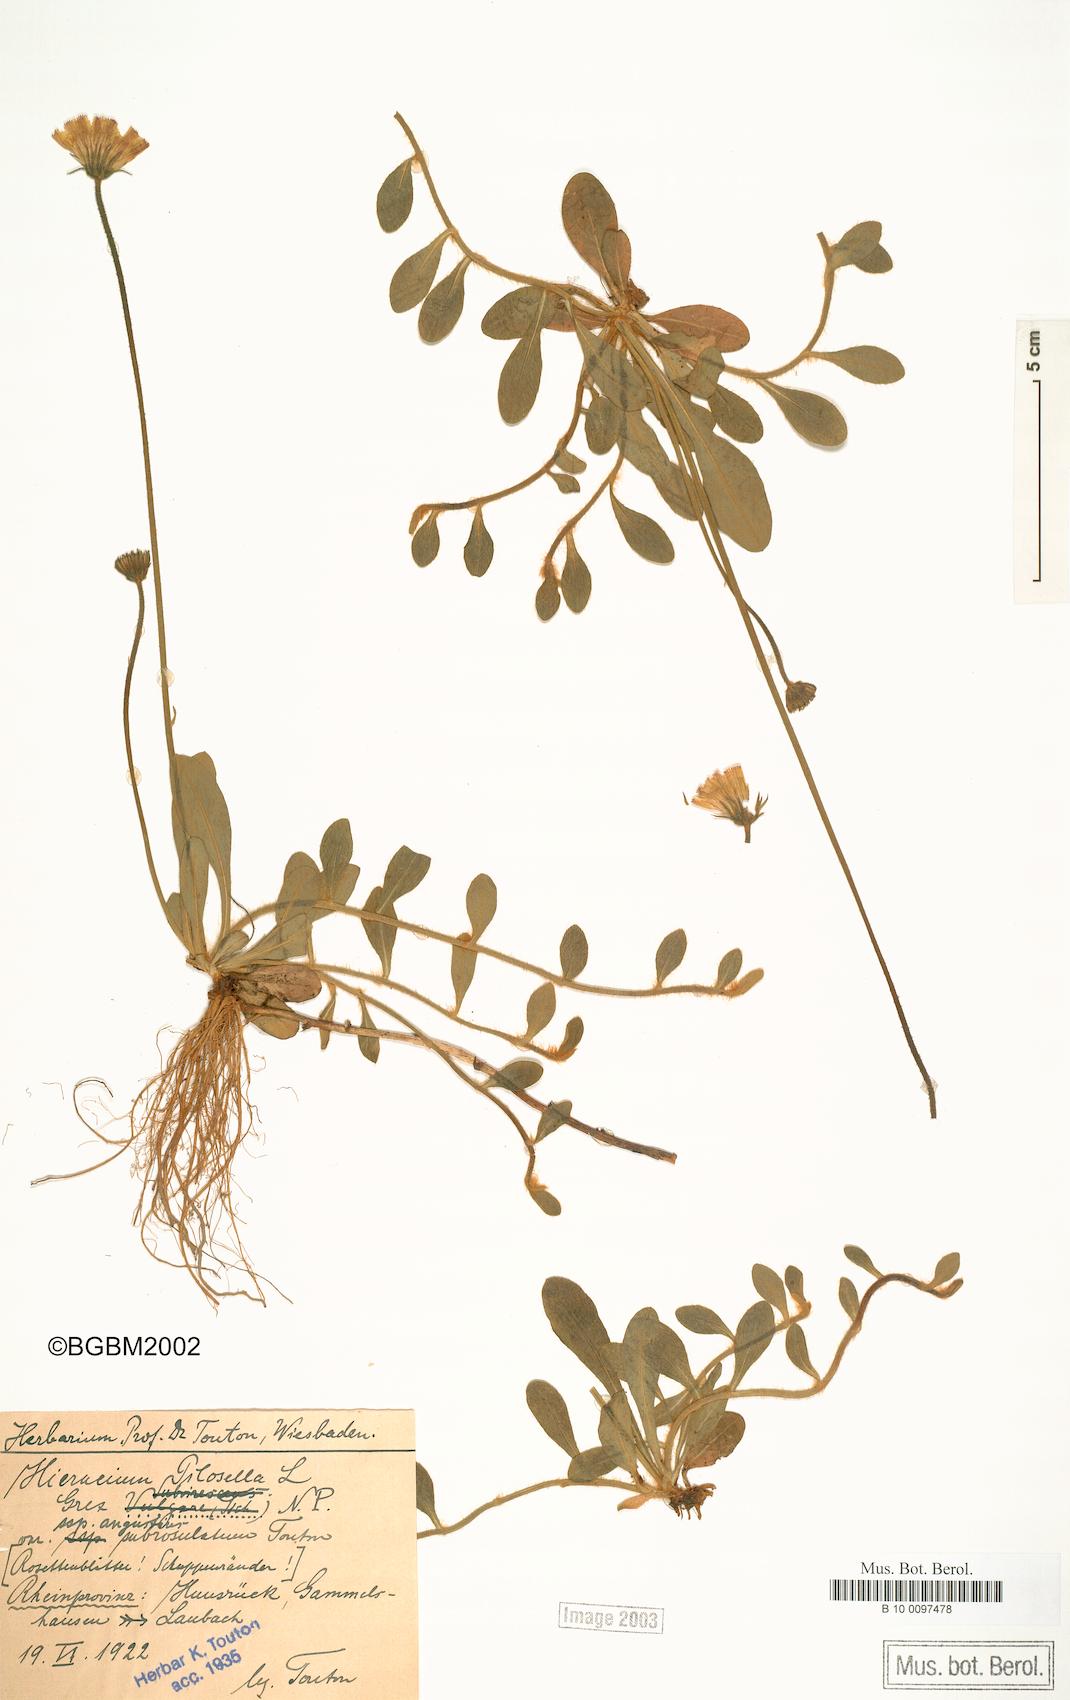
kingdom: Plantae
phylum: Tracheophyta
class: Magnoliopsida
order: Asterales
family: Asteraceae
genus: Pilosella
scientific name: Pilosella officinarum
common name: Mouse-ear hawkweed
